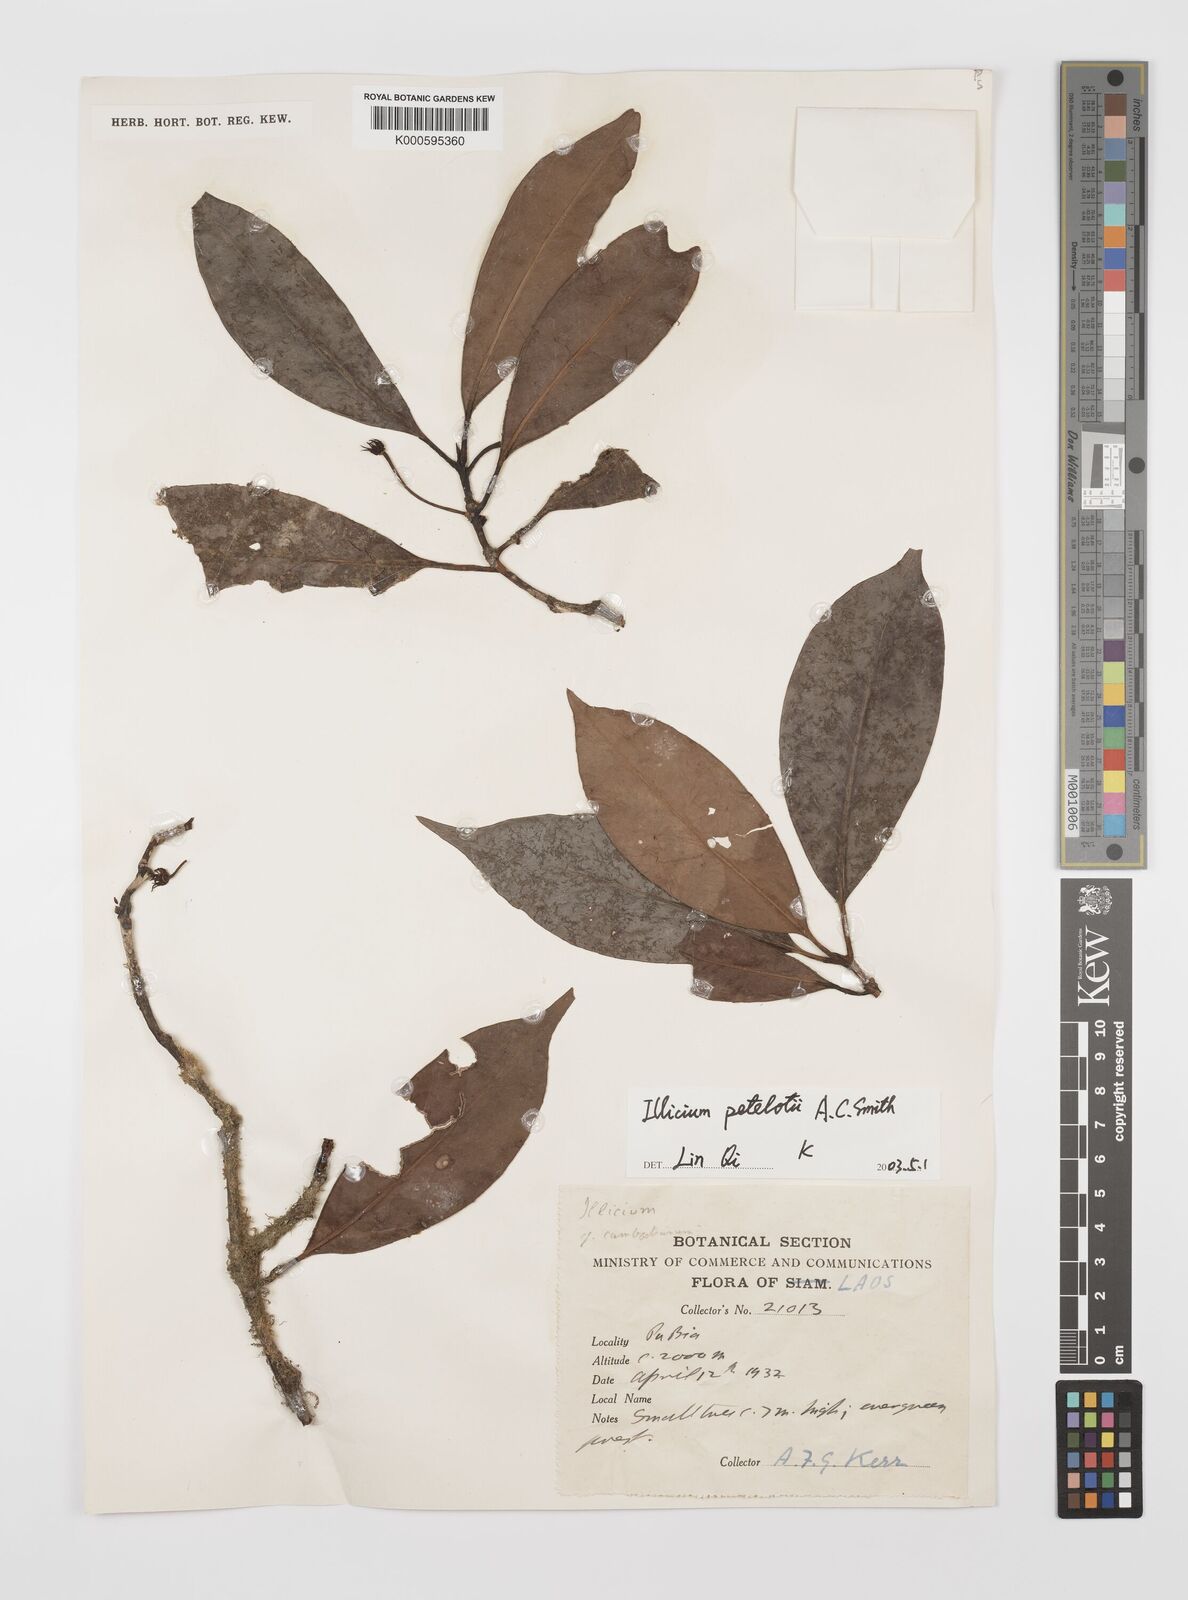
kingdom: Plantae
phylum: Tracheophyta
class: Magnoliopsida
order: Austrobaileyales
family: Schisandraceae
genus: Illicium
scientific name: Illicium petelotii
